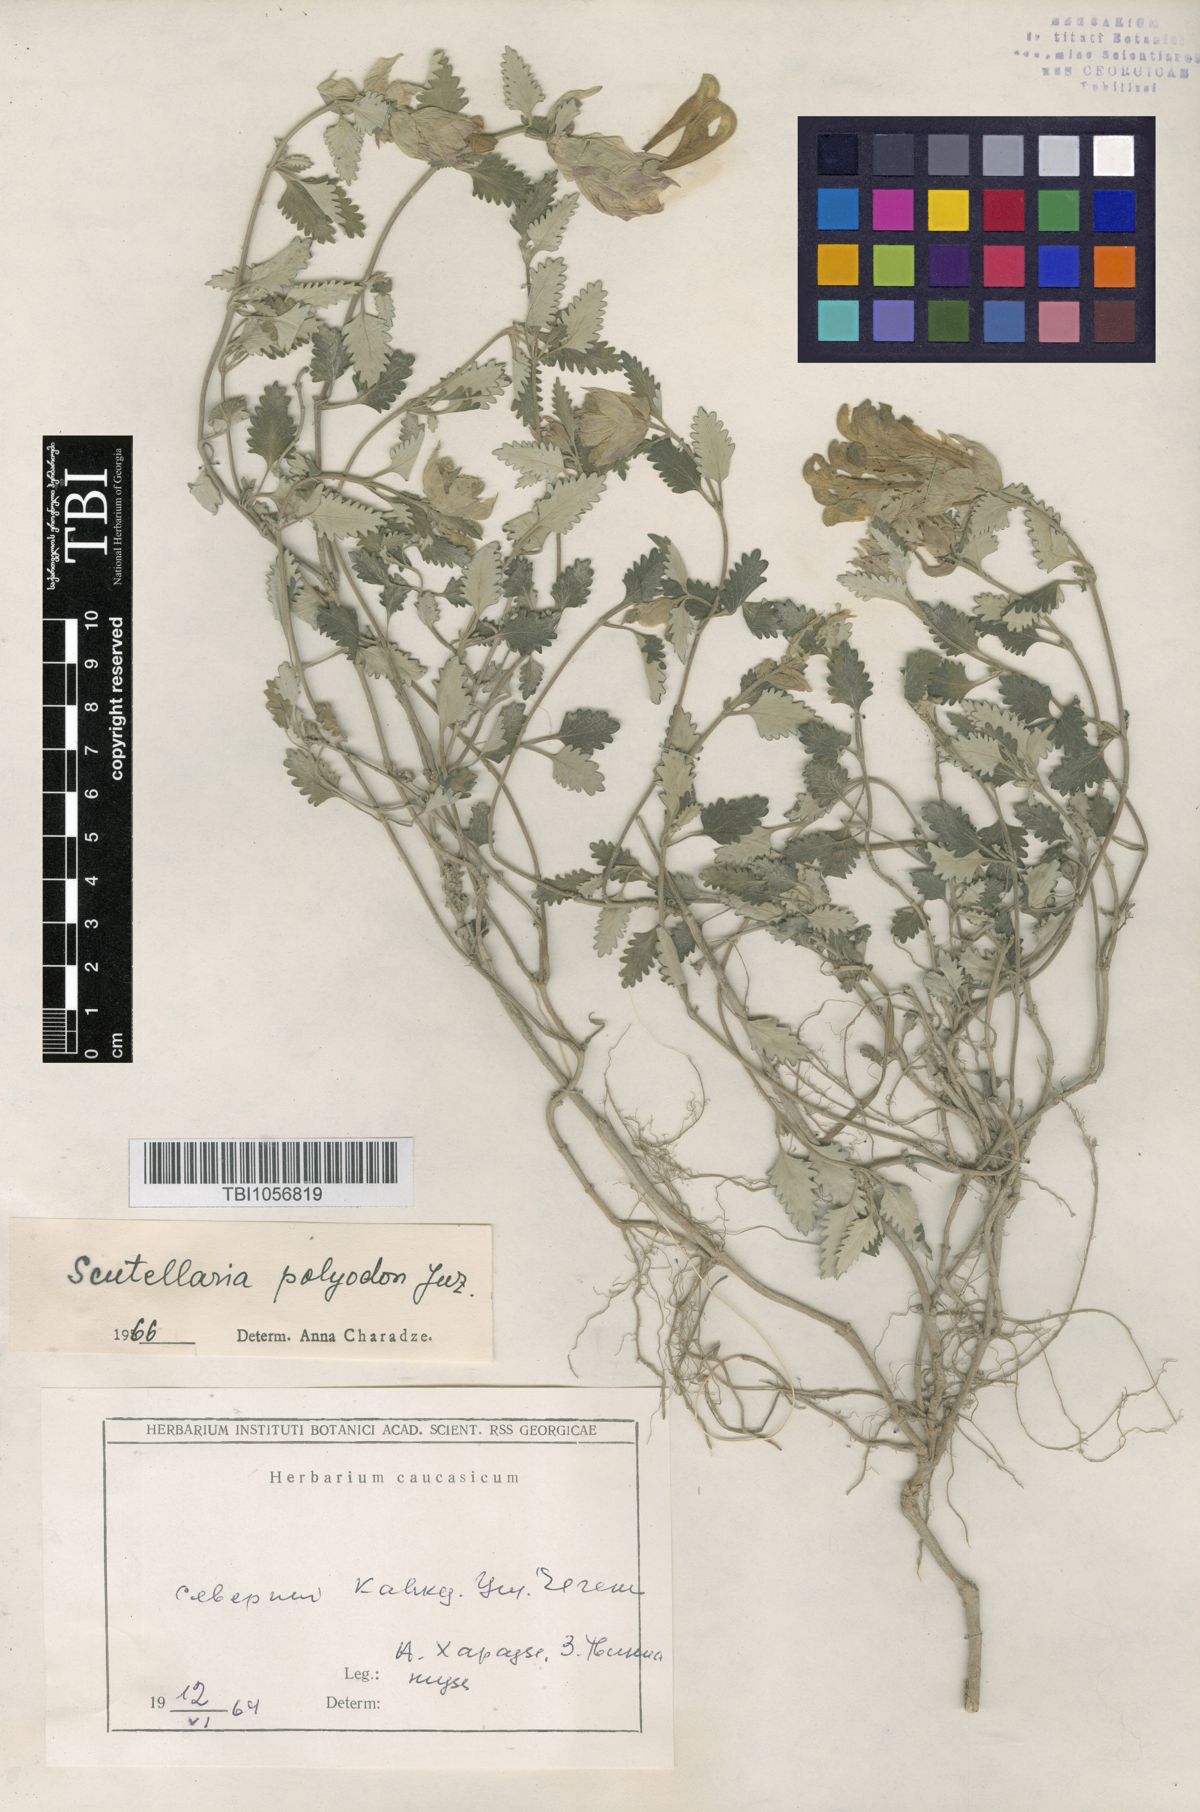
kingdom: Plantae
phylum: Tracheophyta
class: Magnoliopsida
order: Lamiales
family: Lamiaceae
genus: Scutellaria
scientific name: Scutellaria caucasica
